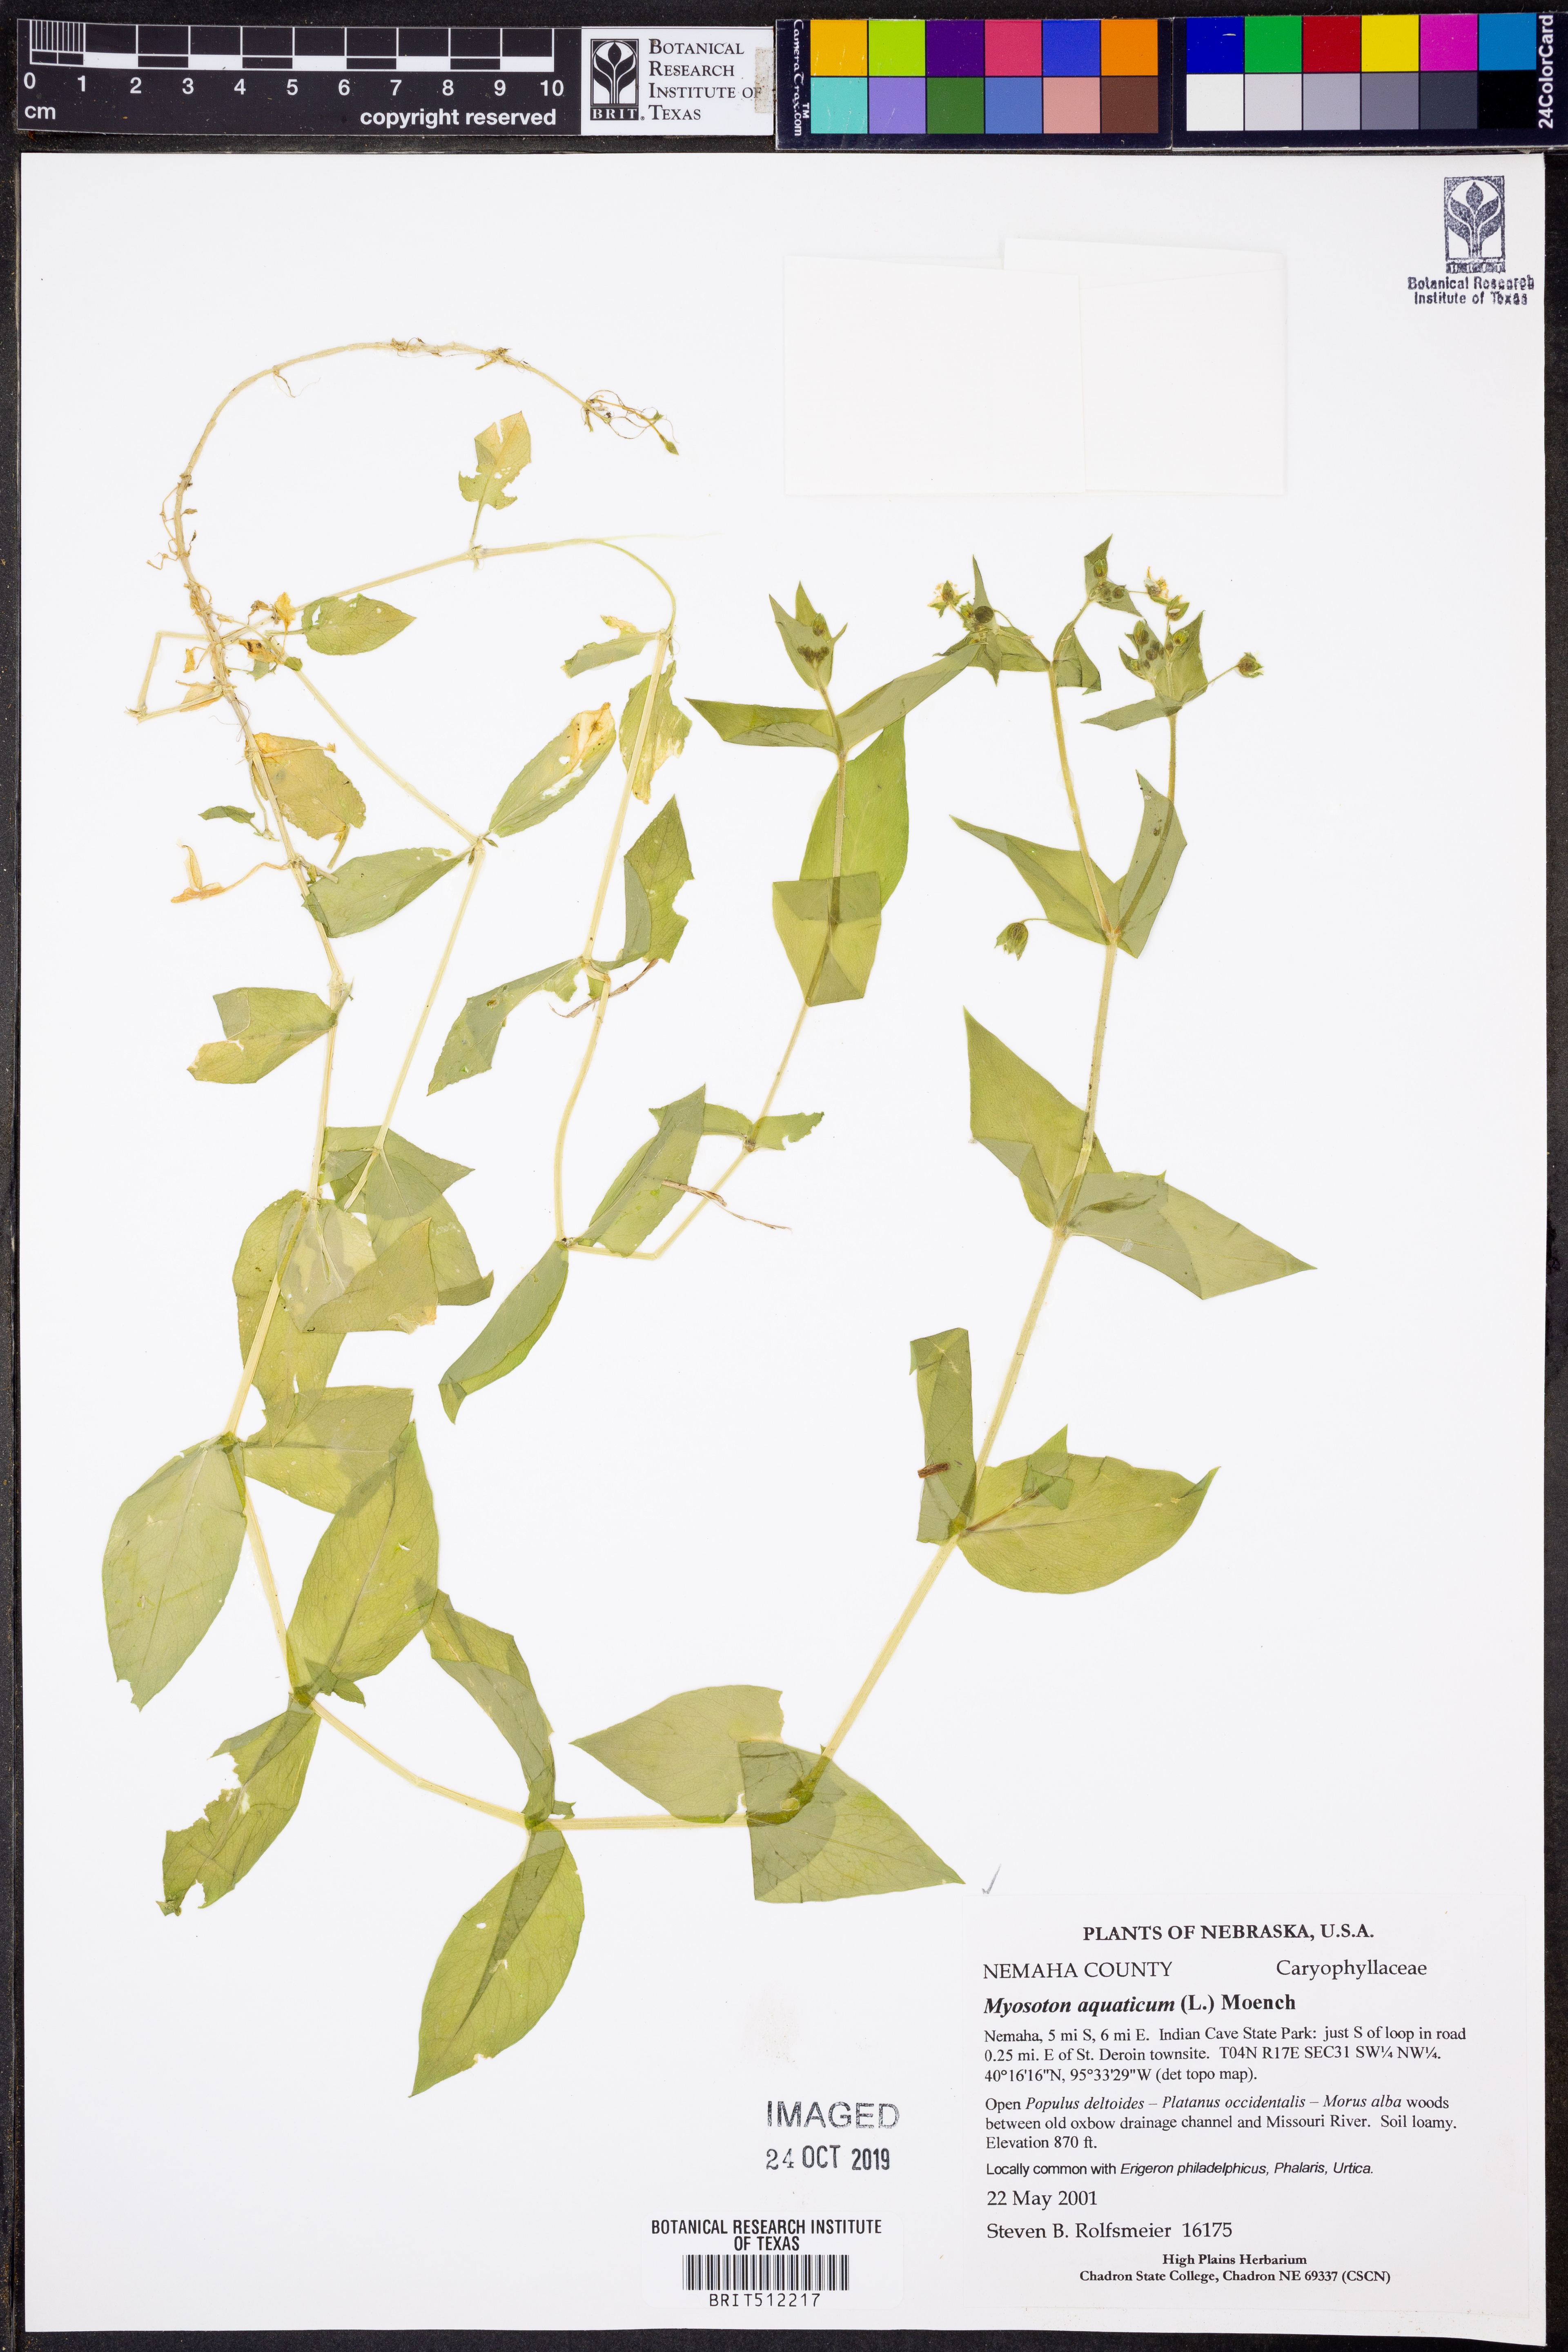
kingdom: Plantae
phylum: Tracheophyta
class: Magnoliopsida
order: Caryophyllales
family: Caryophyllaceae
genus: Stellaria
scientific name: Stellaria aquatica
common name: Water chickweed
